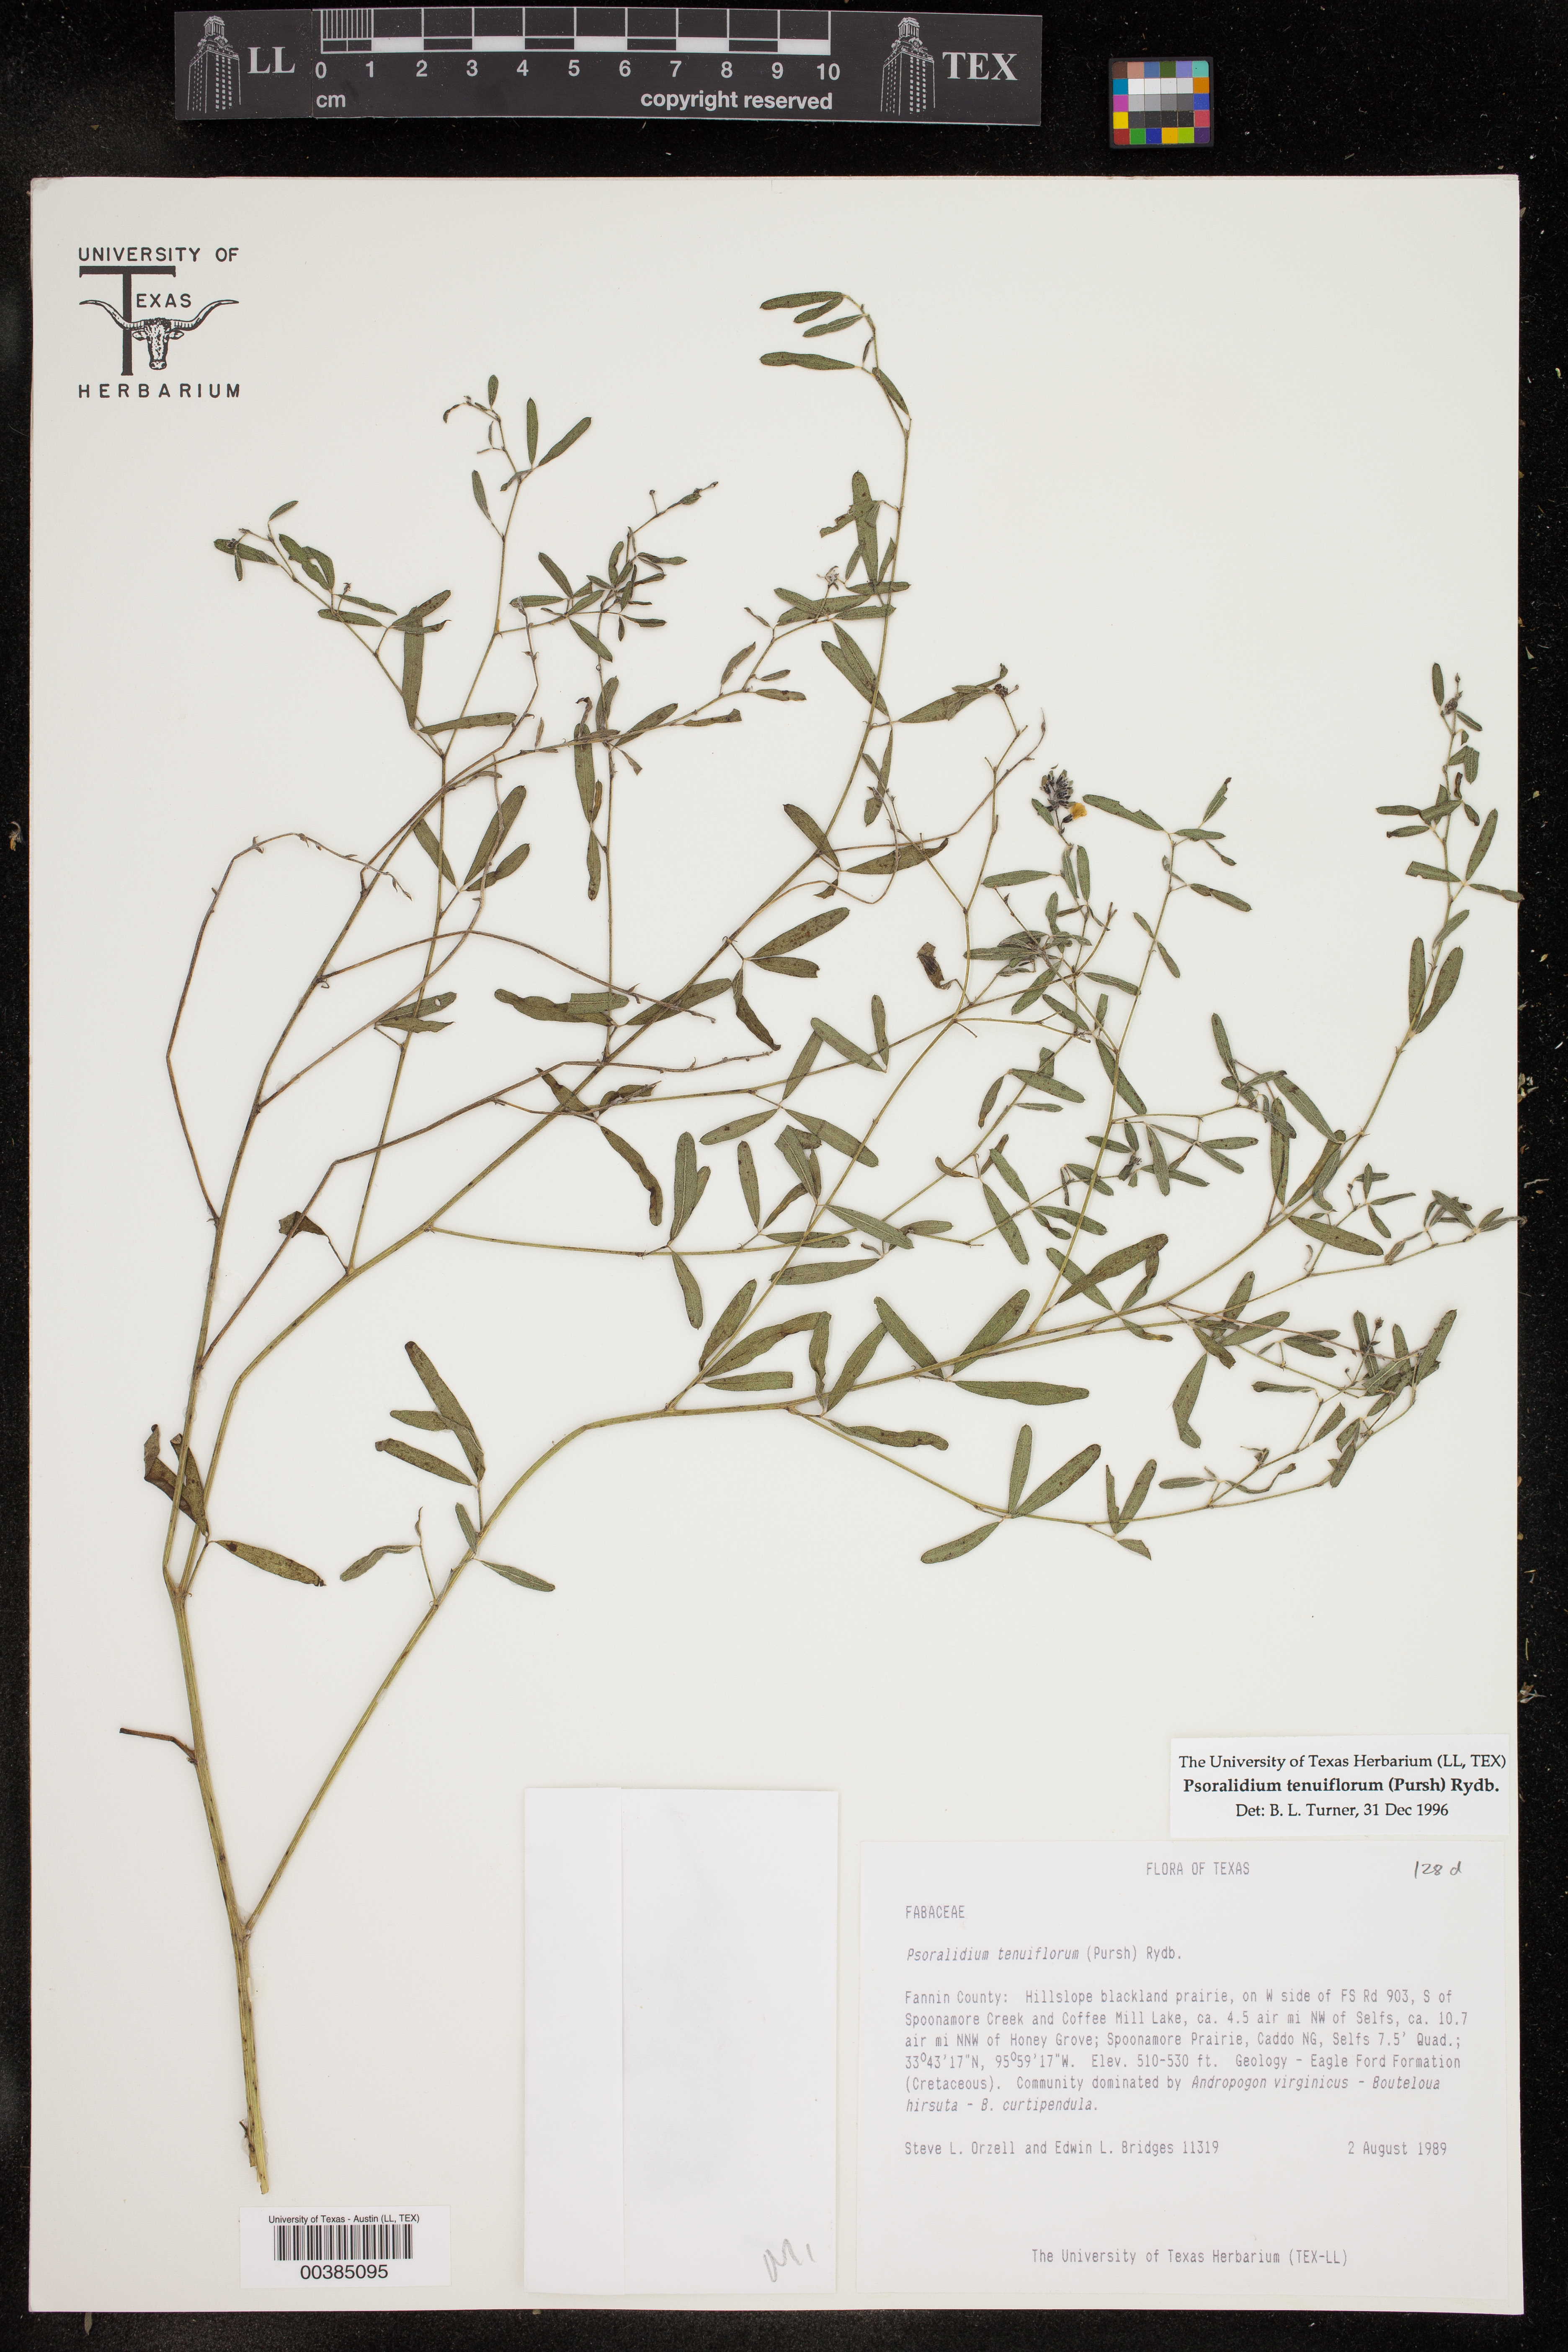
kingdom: Plantae
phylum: Tracheophyta
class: Magnoliopsida
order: Fabales
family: Fabaceae
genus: Pediomelum
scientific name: Pediomelum tenuiflorum
